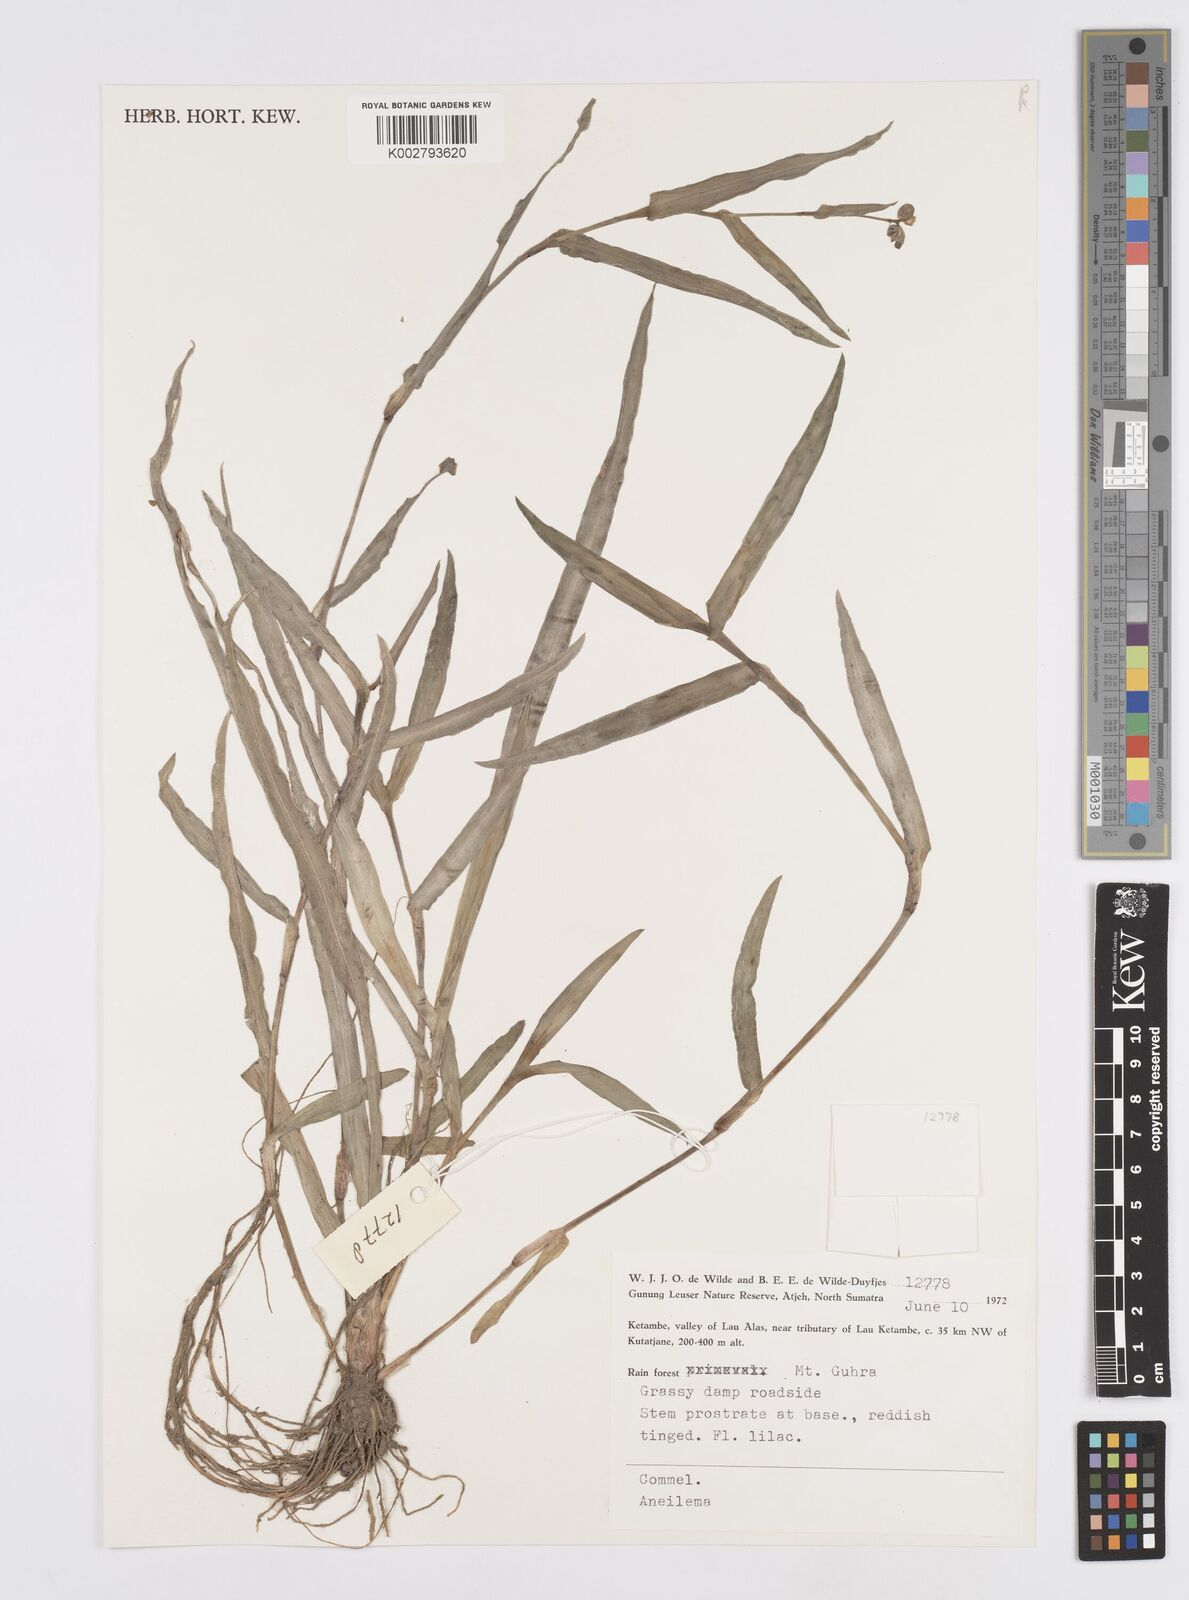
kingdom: Plantae
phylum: Tracheophyta
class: Liliopsida
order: Commelinales
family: Commelinaceae
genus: Murdannia
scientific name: Murdannia
